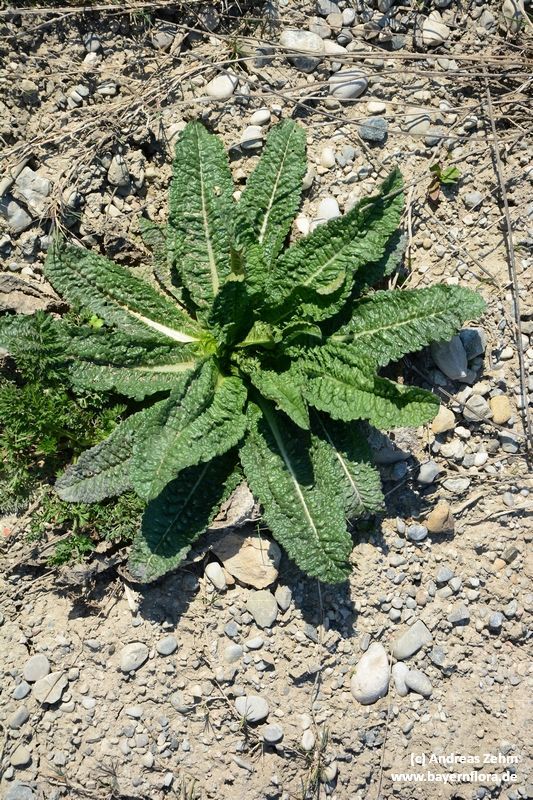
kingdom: Plantae
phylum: Tracheophyta
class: Magnoliopsida
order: Dipsacales
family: Caprifoliaceae
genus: Dipsacus
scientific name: Dipsacus fullonum
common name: Teasel
